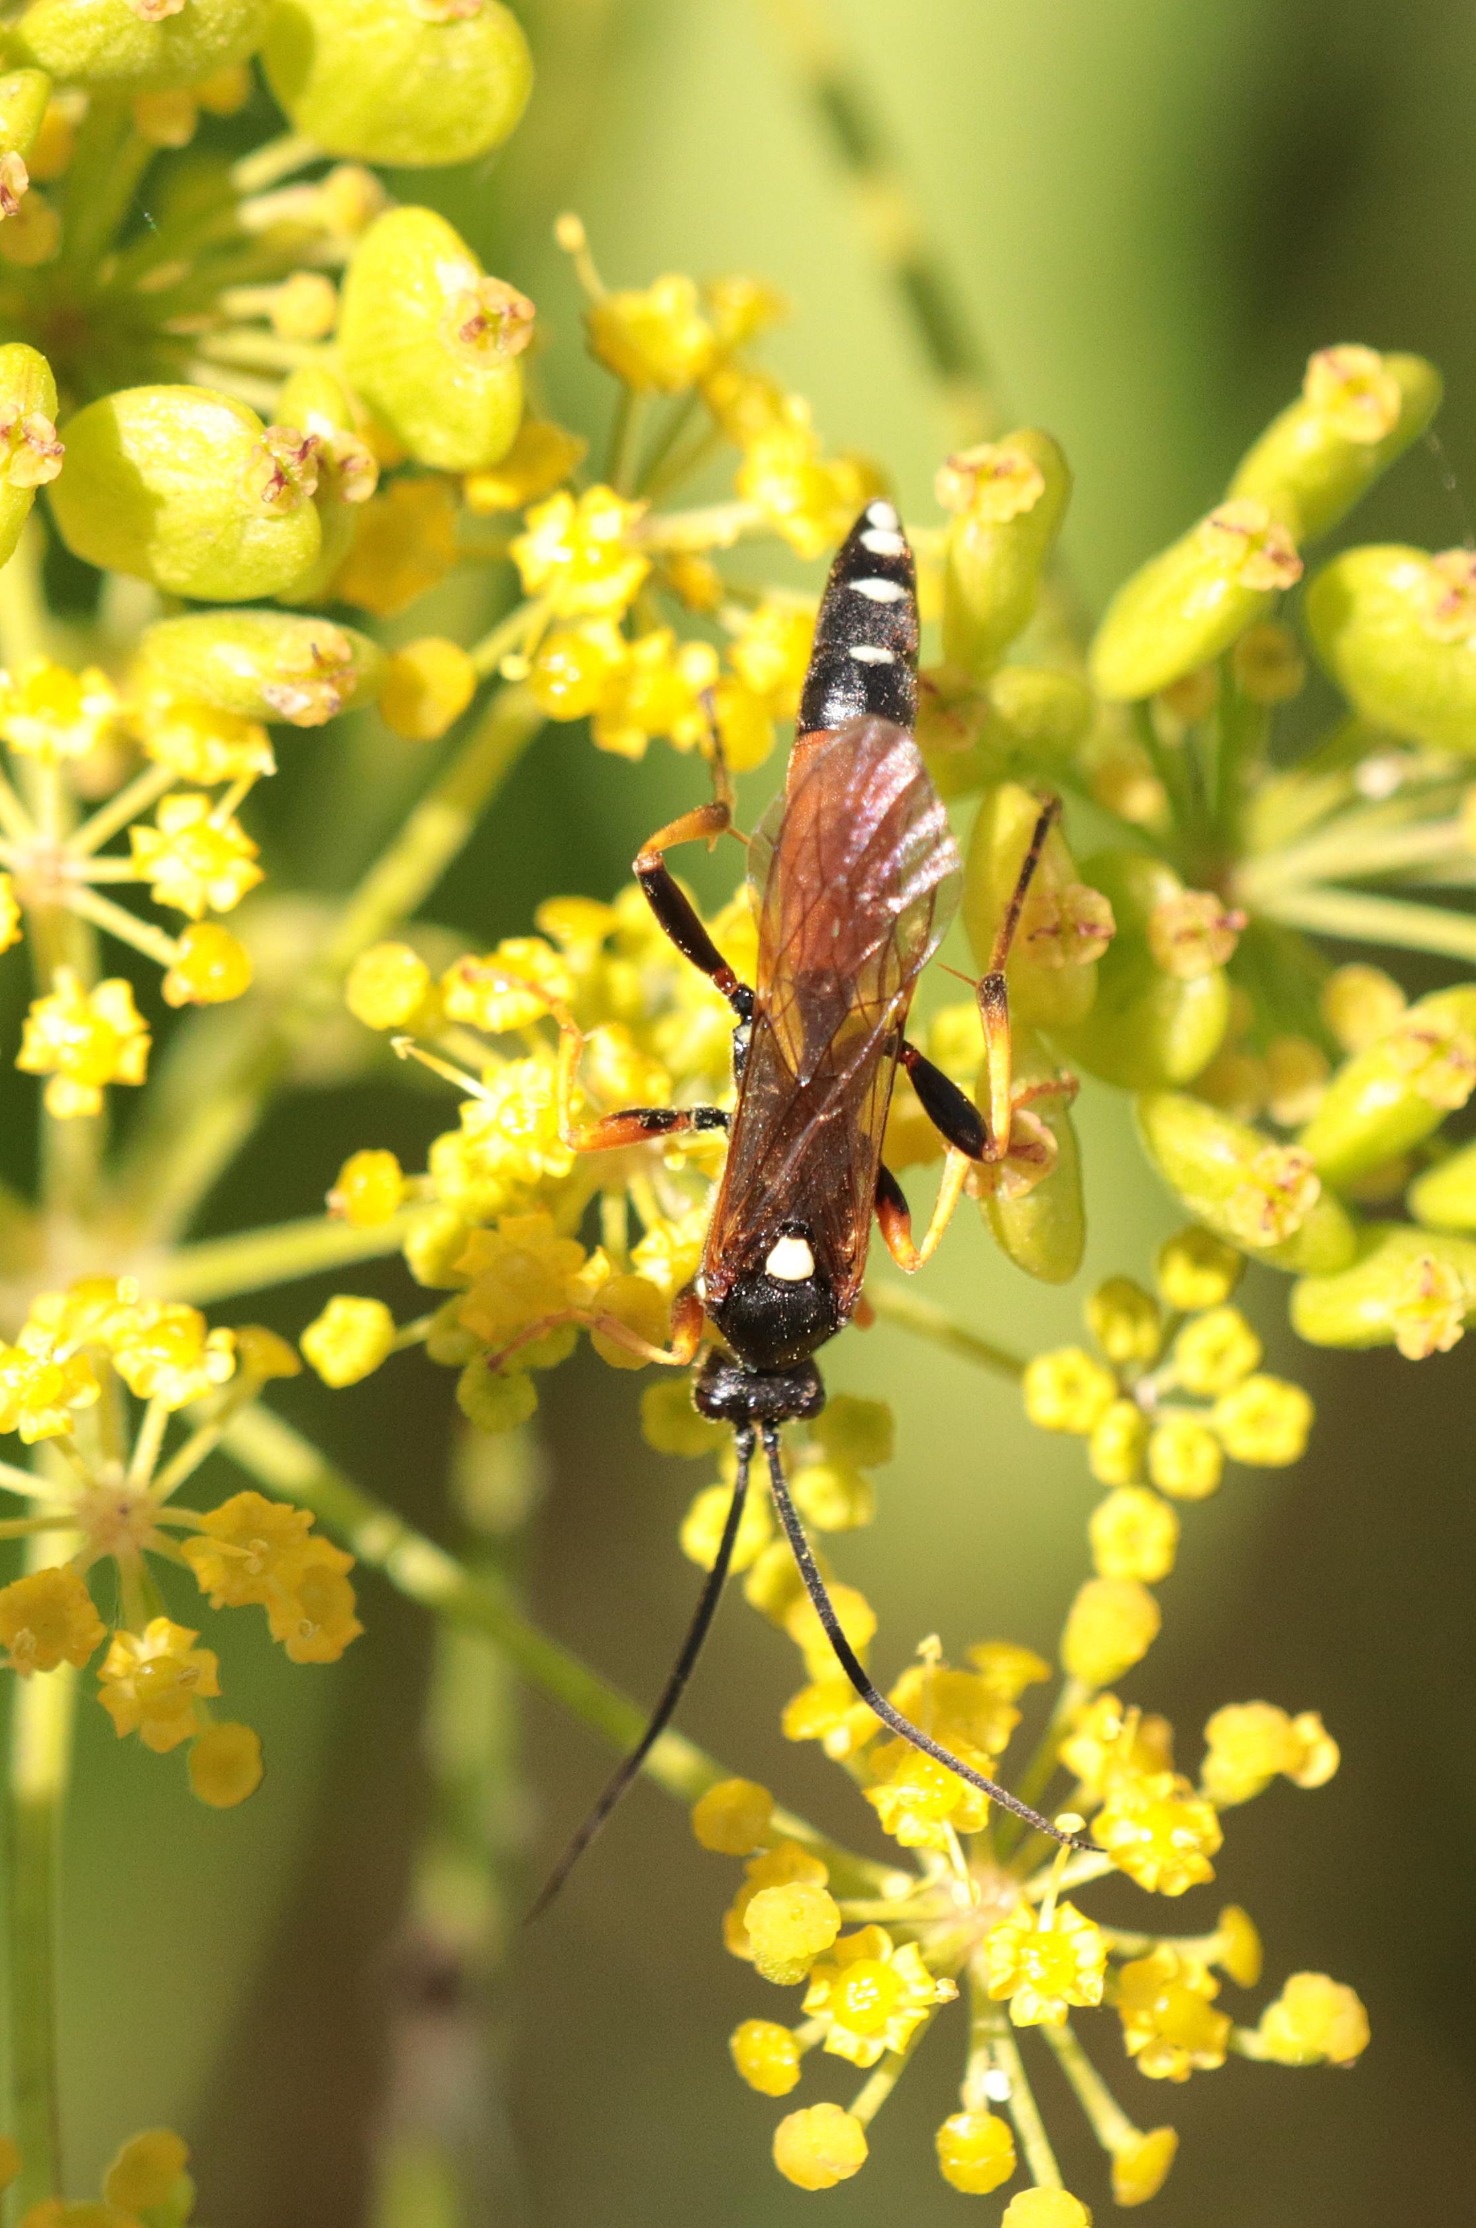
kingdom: Animalia
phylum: Arthropoda
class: Insecta
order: Hymenoptera
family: Ichneumonidae
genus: Diphyus
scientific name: Diphyus raptorius
